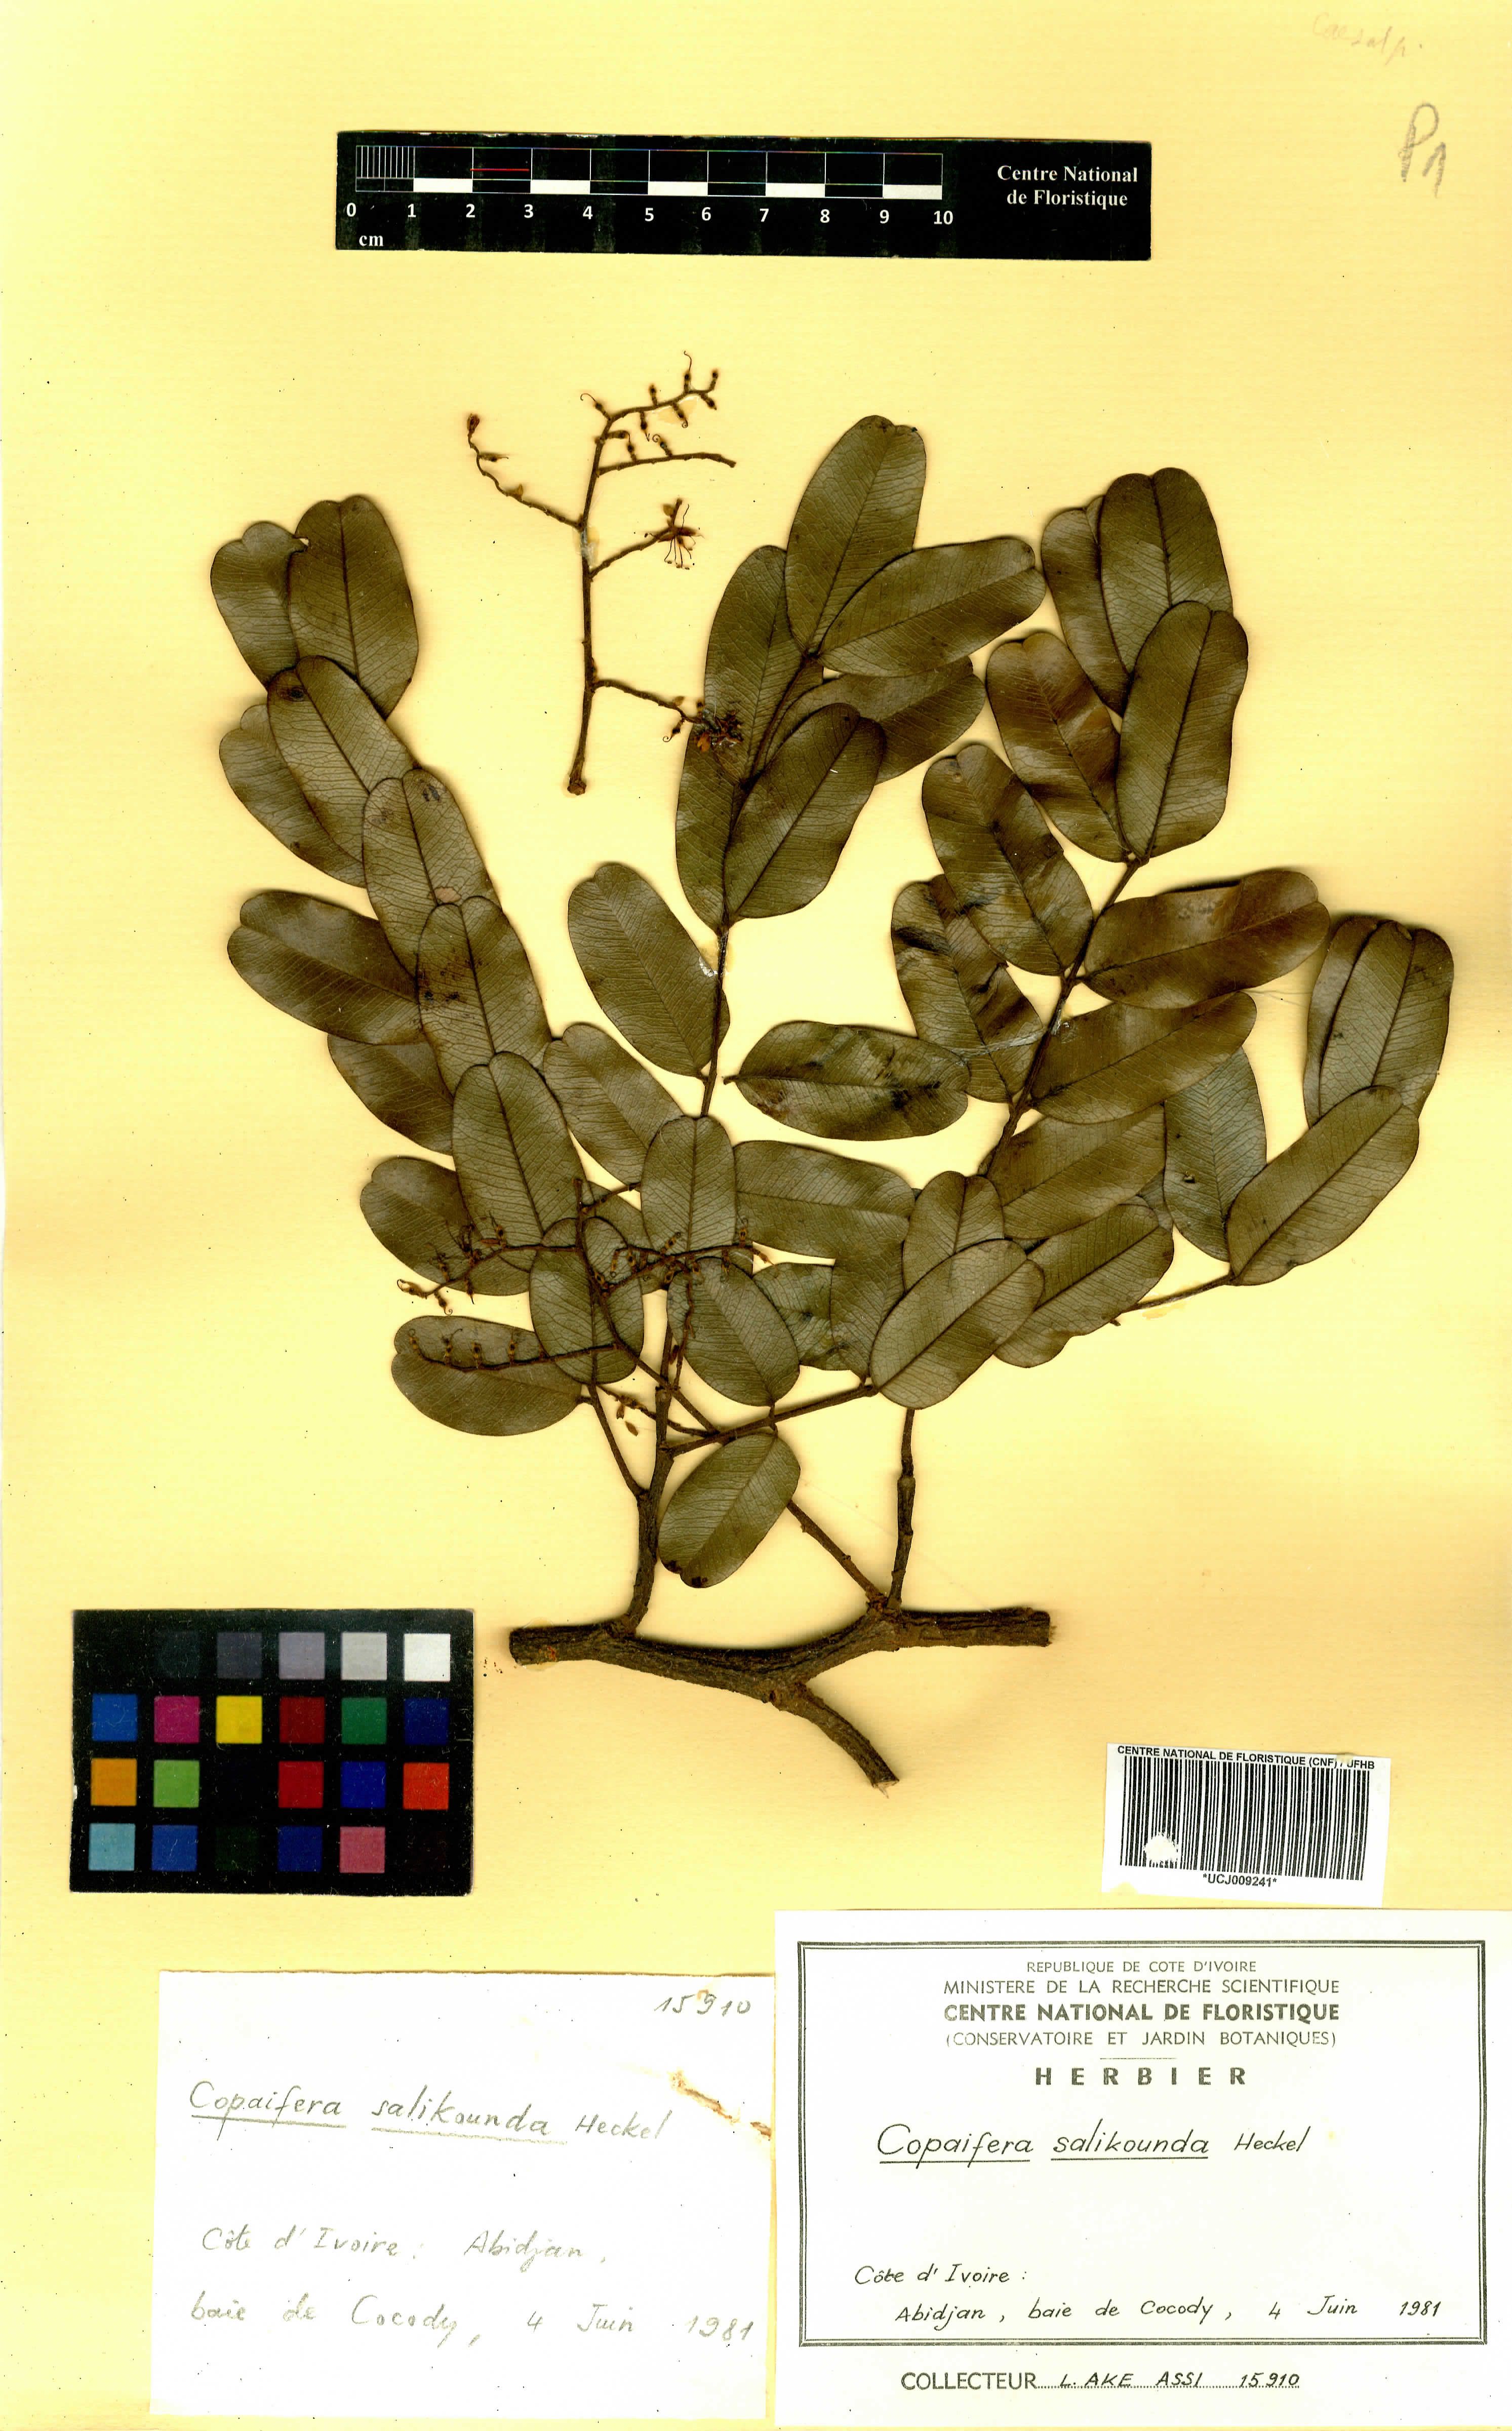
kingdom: Plantae
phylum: Tracheophyta
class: Magnoliopsida
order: Fabales
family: Fabaceae
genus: Copaifera
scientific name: Copaifera salikounda
